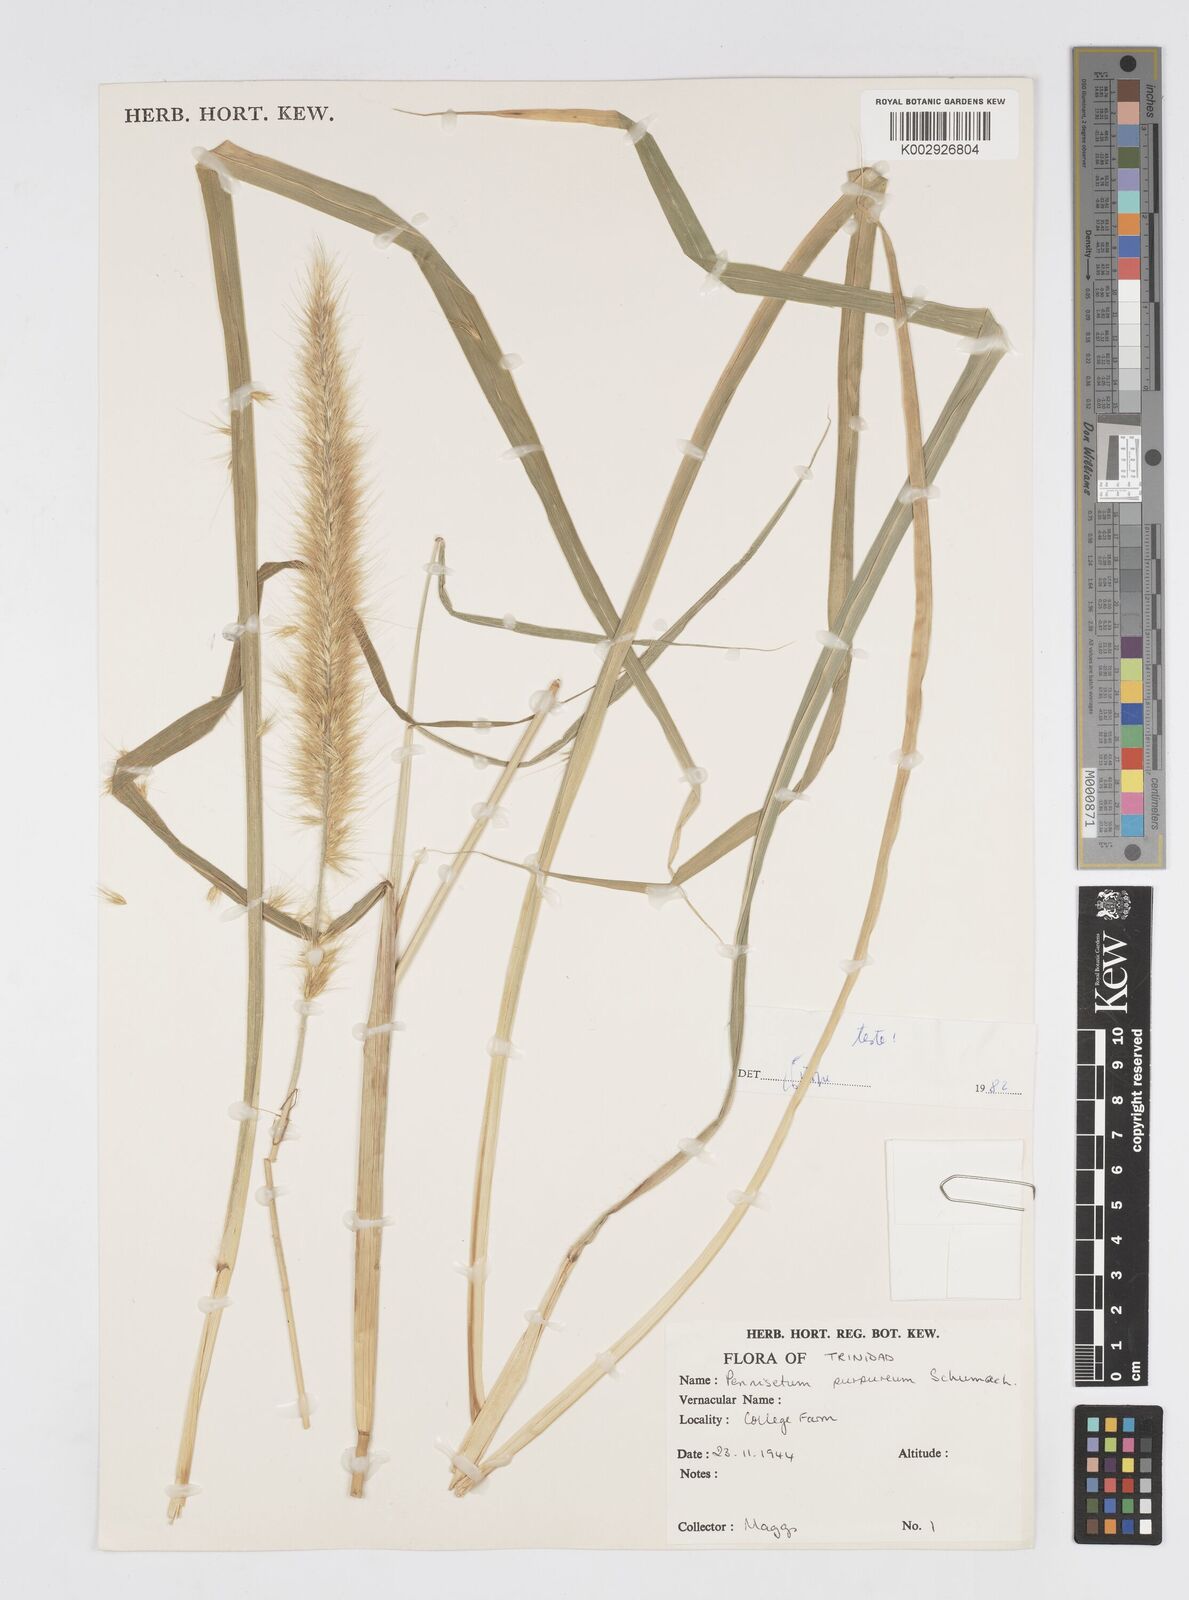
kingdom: Plantae
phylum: Tracheophyta
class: Liliopsida
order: Poales
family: Poaceae
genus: Cenchrus
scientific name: Cenchrus purpureus
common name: Elephant grass
